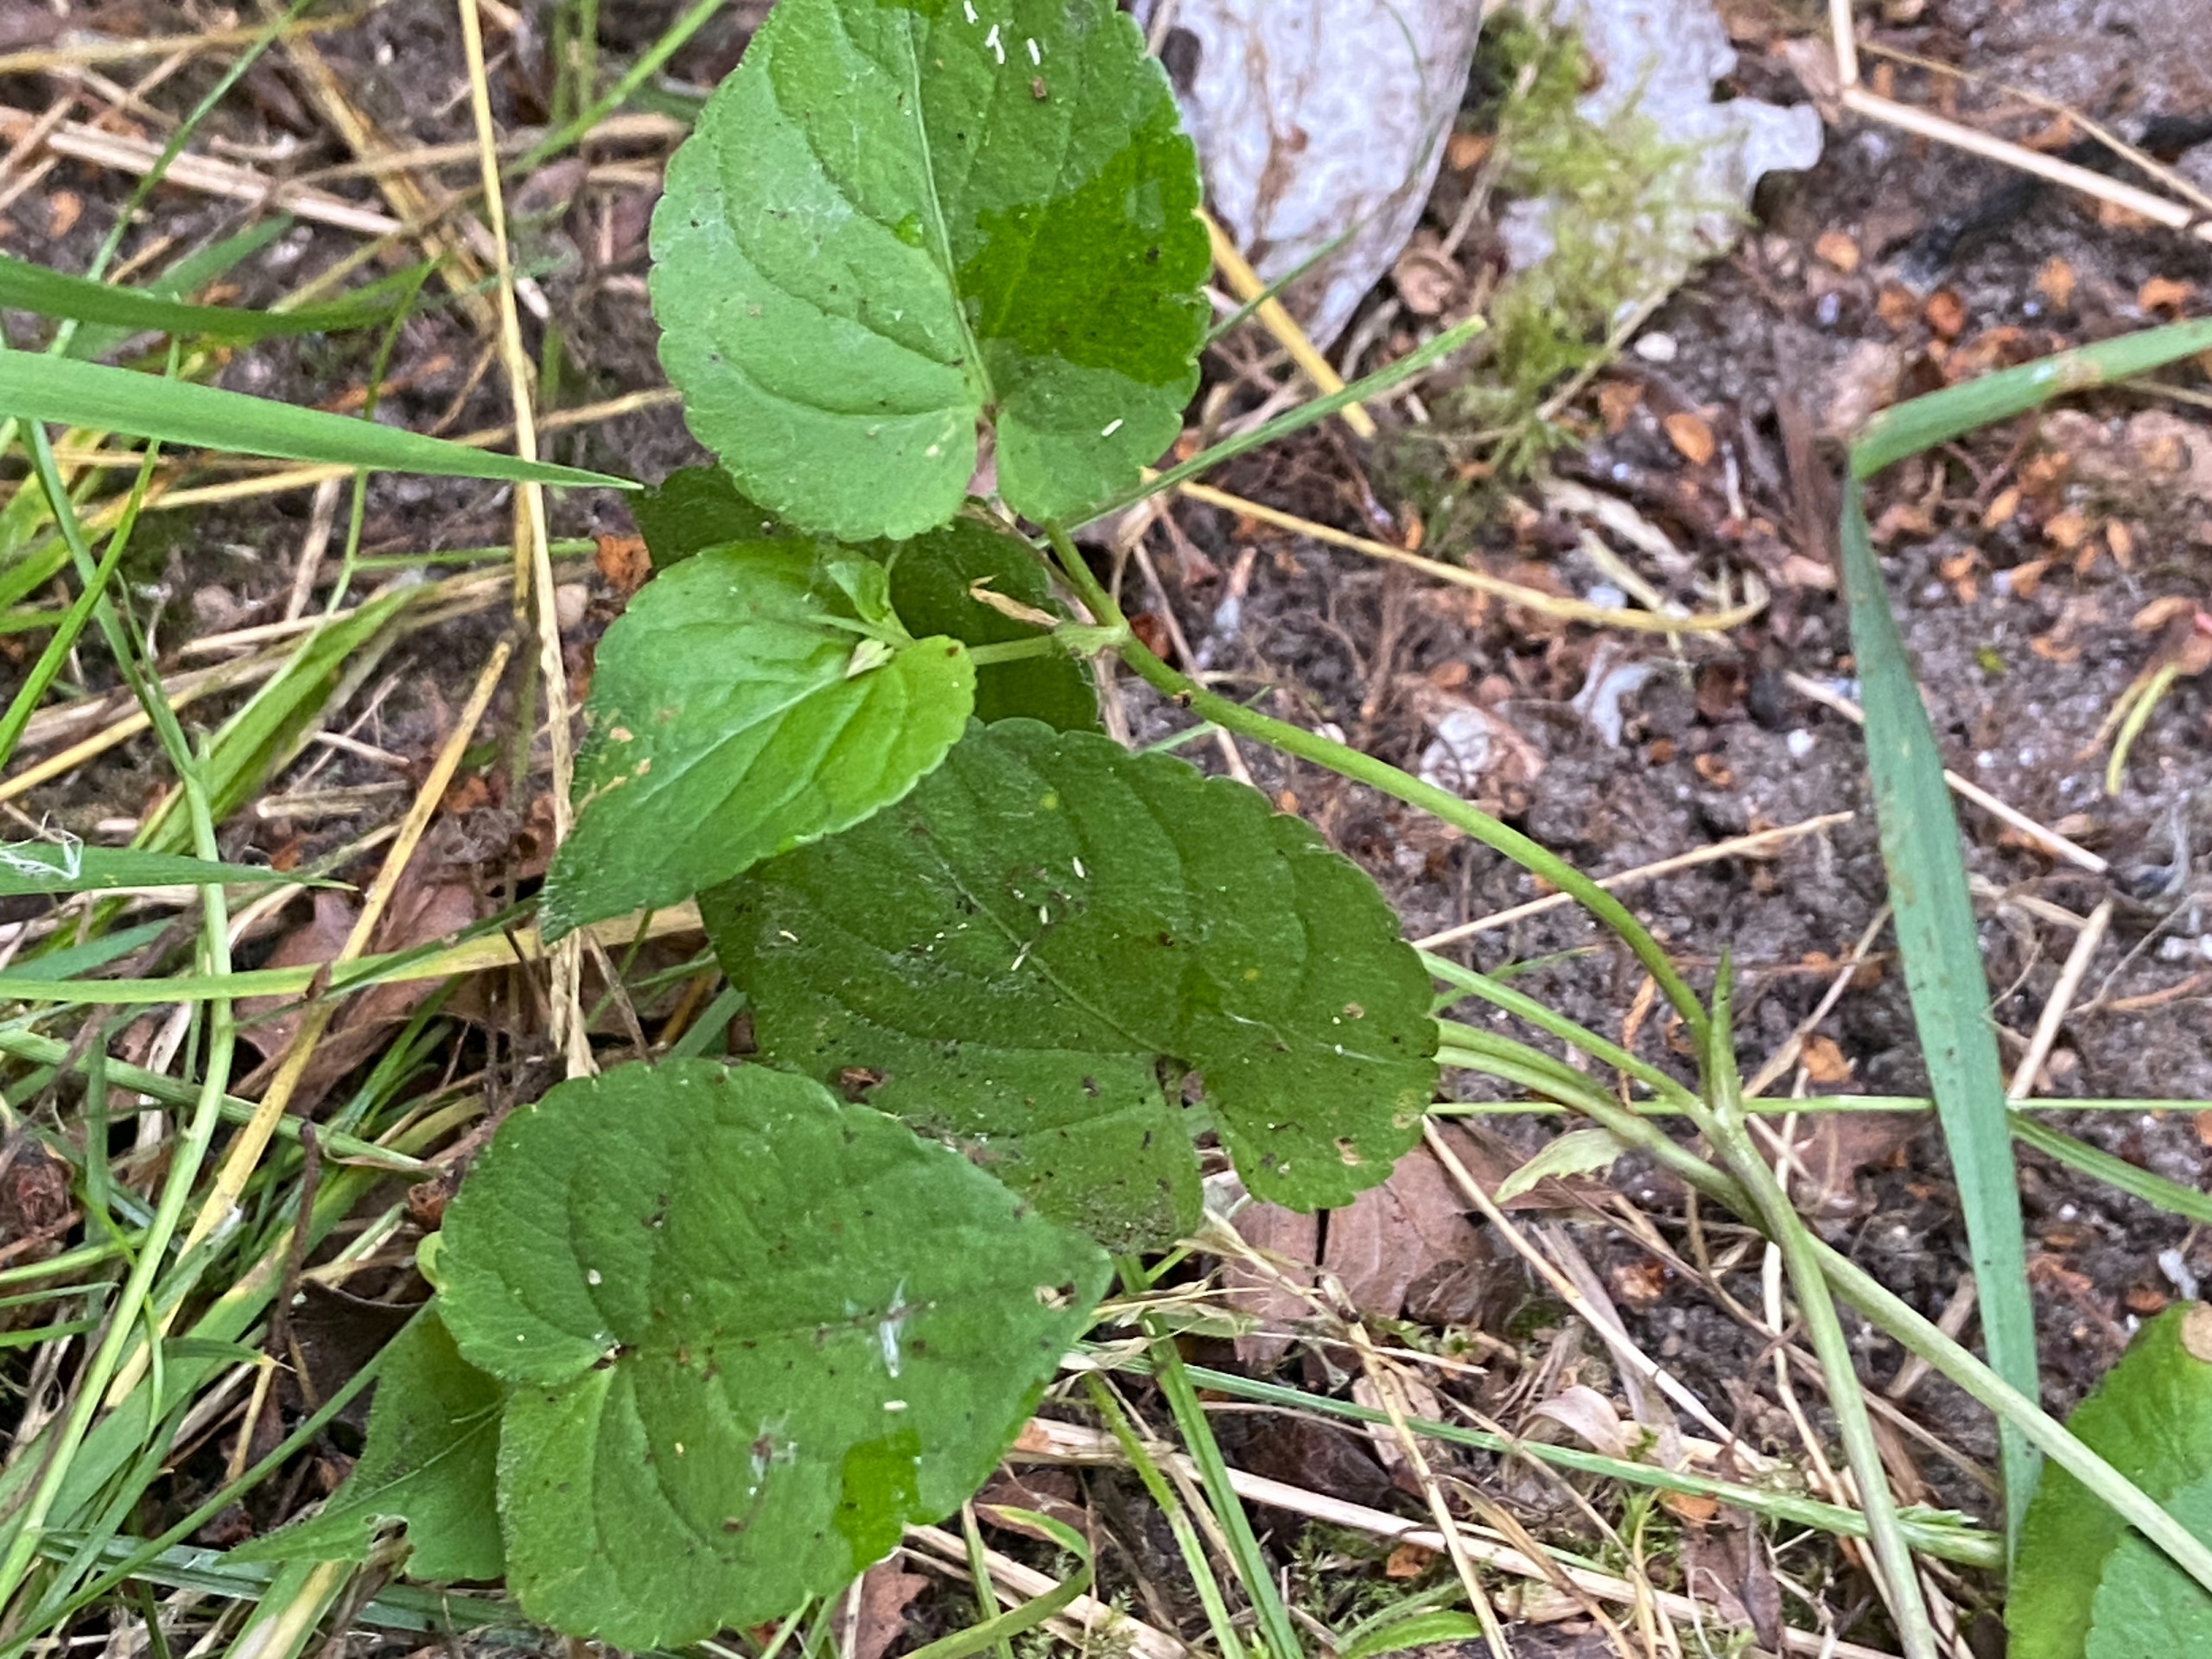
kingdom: Plantae
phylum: Tracheophyta
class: Magnoliopsida
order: Malpighiales
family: Violaceae
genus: Viola
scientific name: Viola riviniana
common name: Krat-viol
